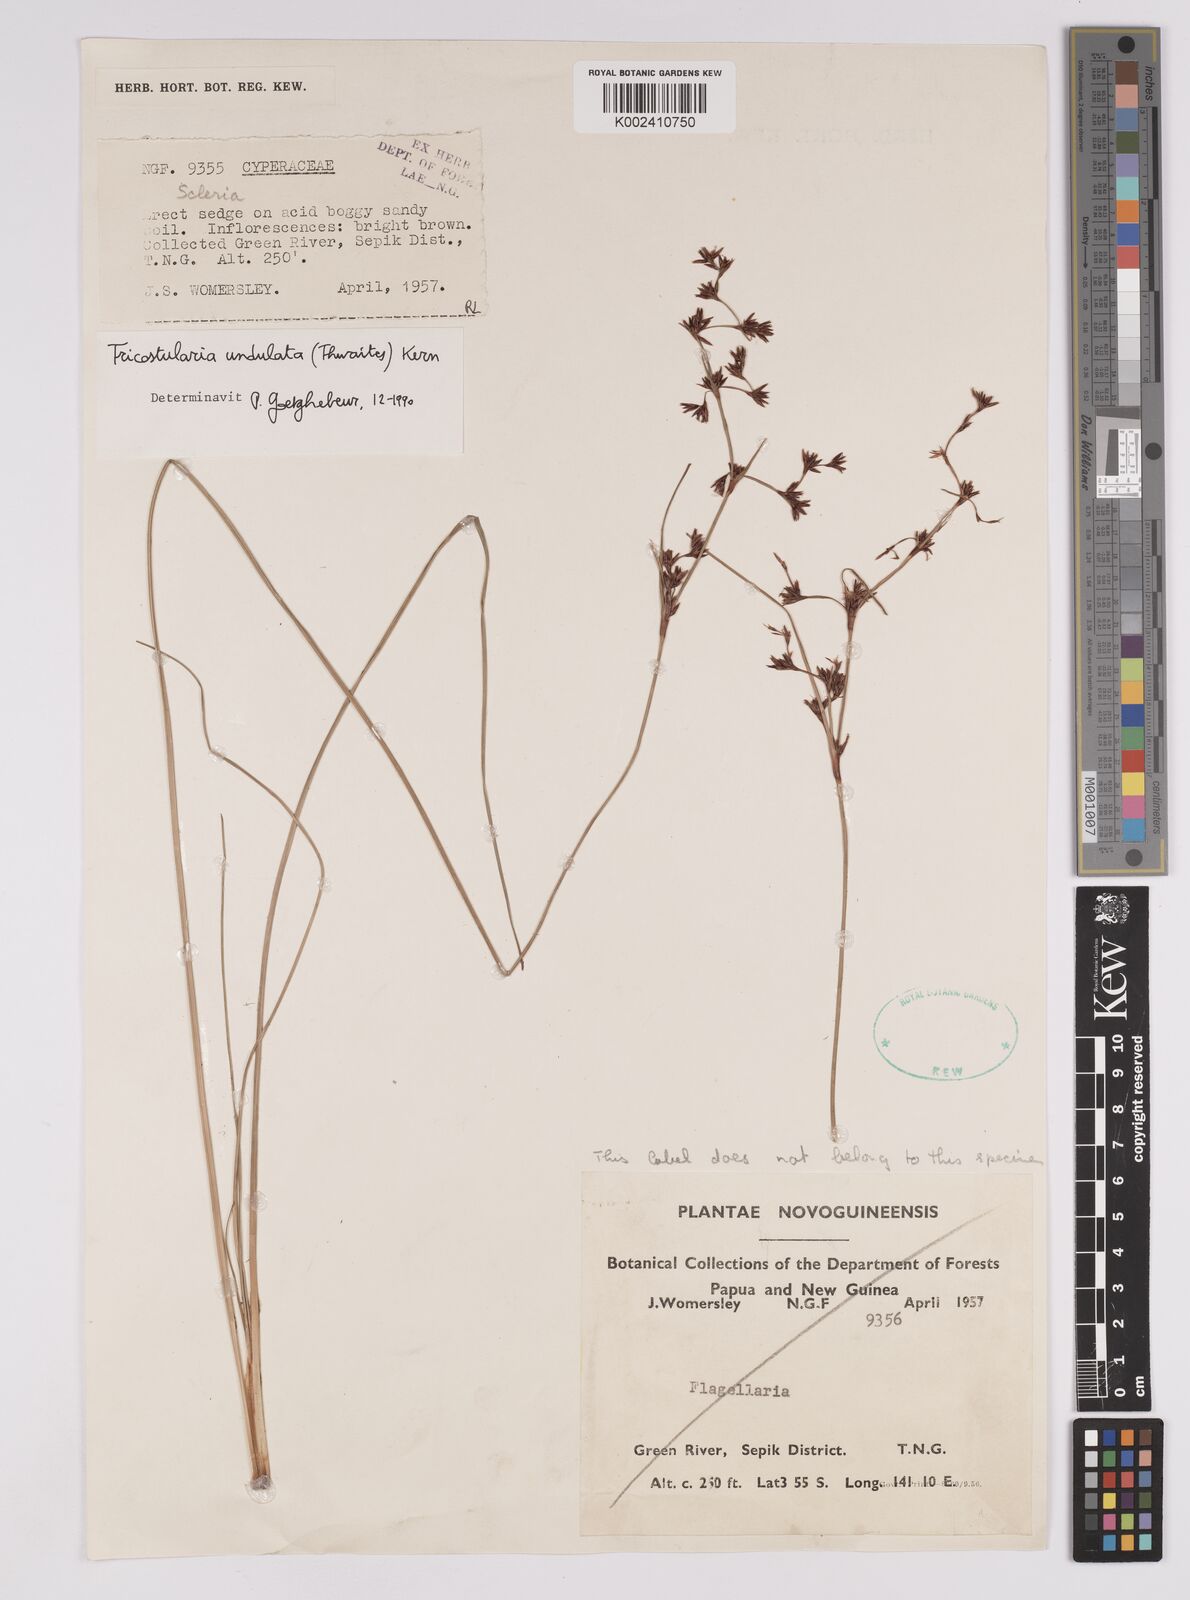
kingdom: Plantae
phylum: Tracheophyta
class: Liliopsida
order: Poales
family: Cyperaceae
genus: Anthelepis
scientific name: Anthelepis undulata
